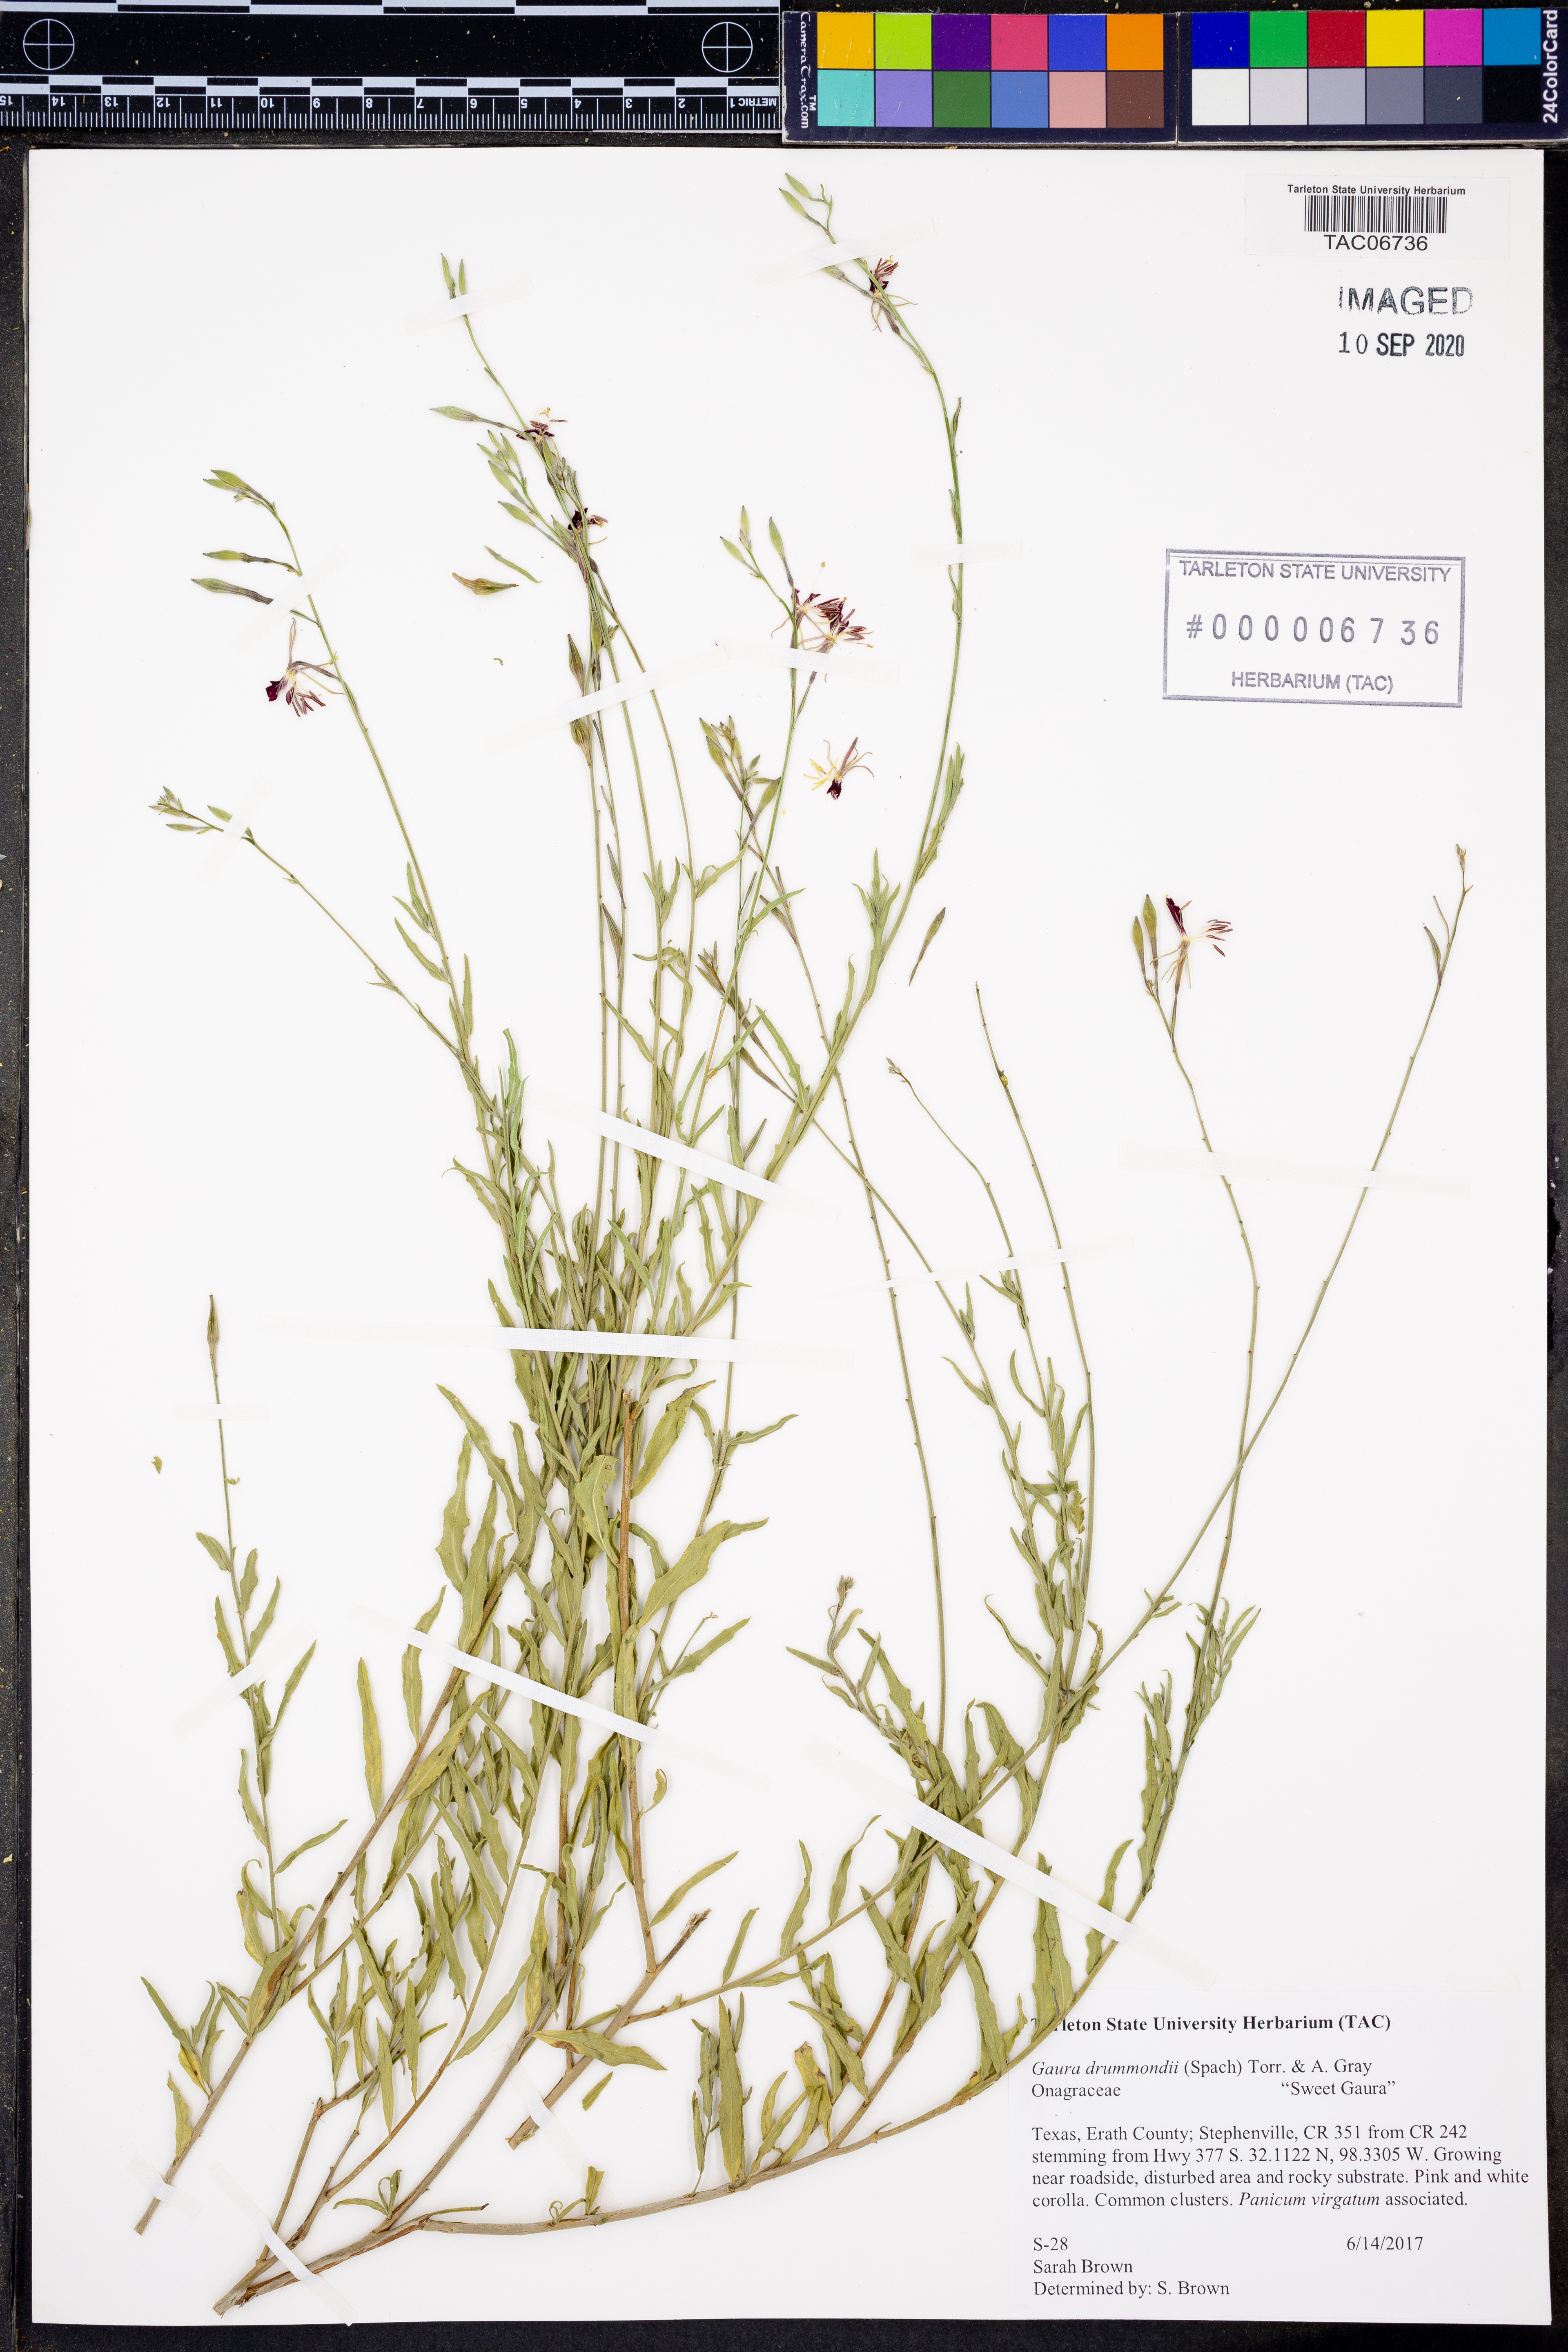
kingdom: Plantae
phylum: Tracheophyta
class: Magnoliopsida
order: Myrtales
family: Onagraceae
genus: Oenothera
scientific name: Oenothera hispida
